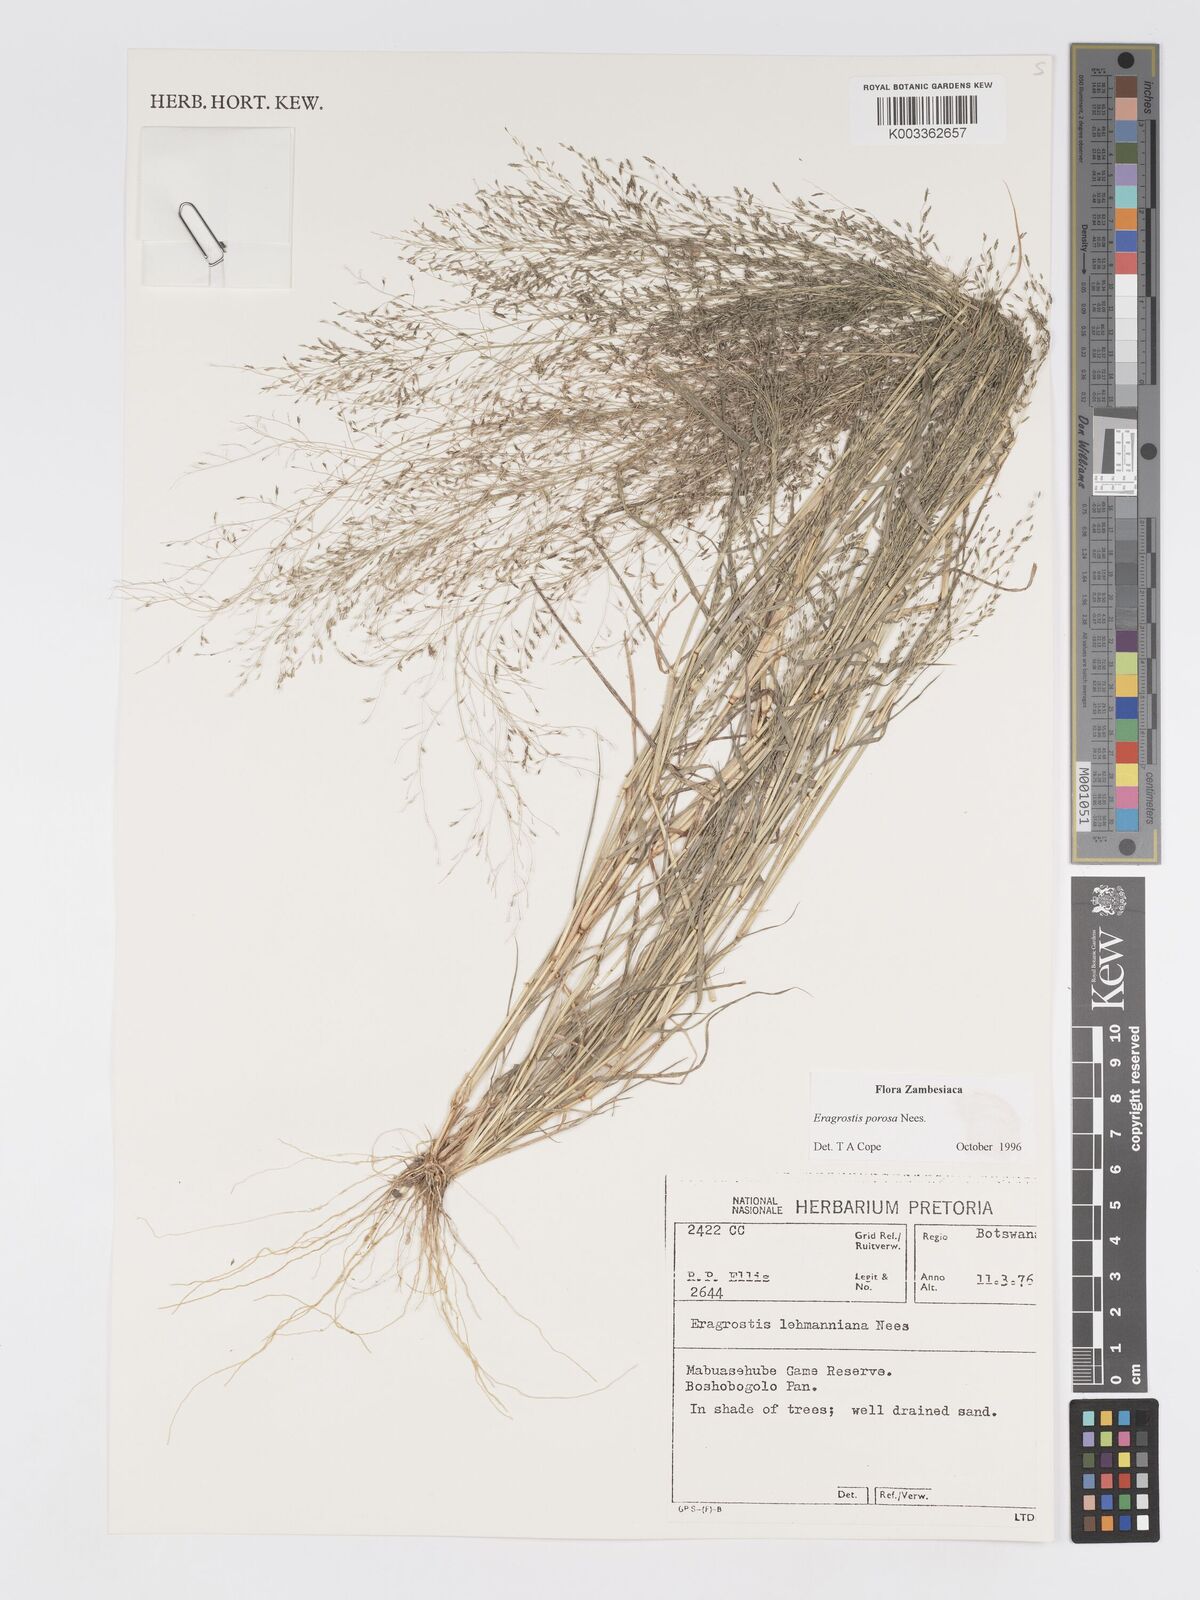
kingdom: Plantae
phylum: Tracheophyta
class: Liliopsida
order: Poales
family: Poaceae
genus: Eragrostis
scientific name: Eragrostis porosa
